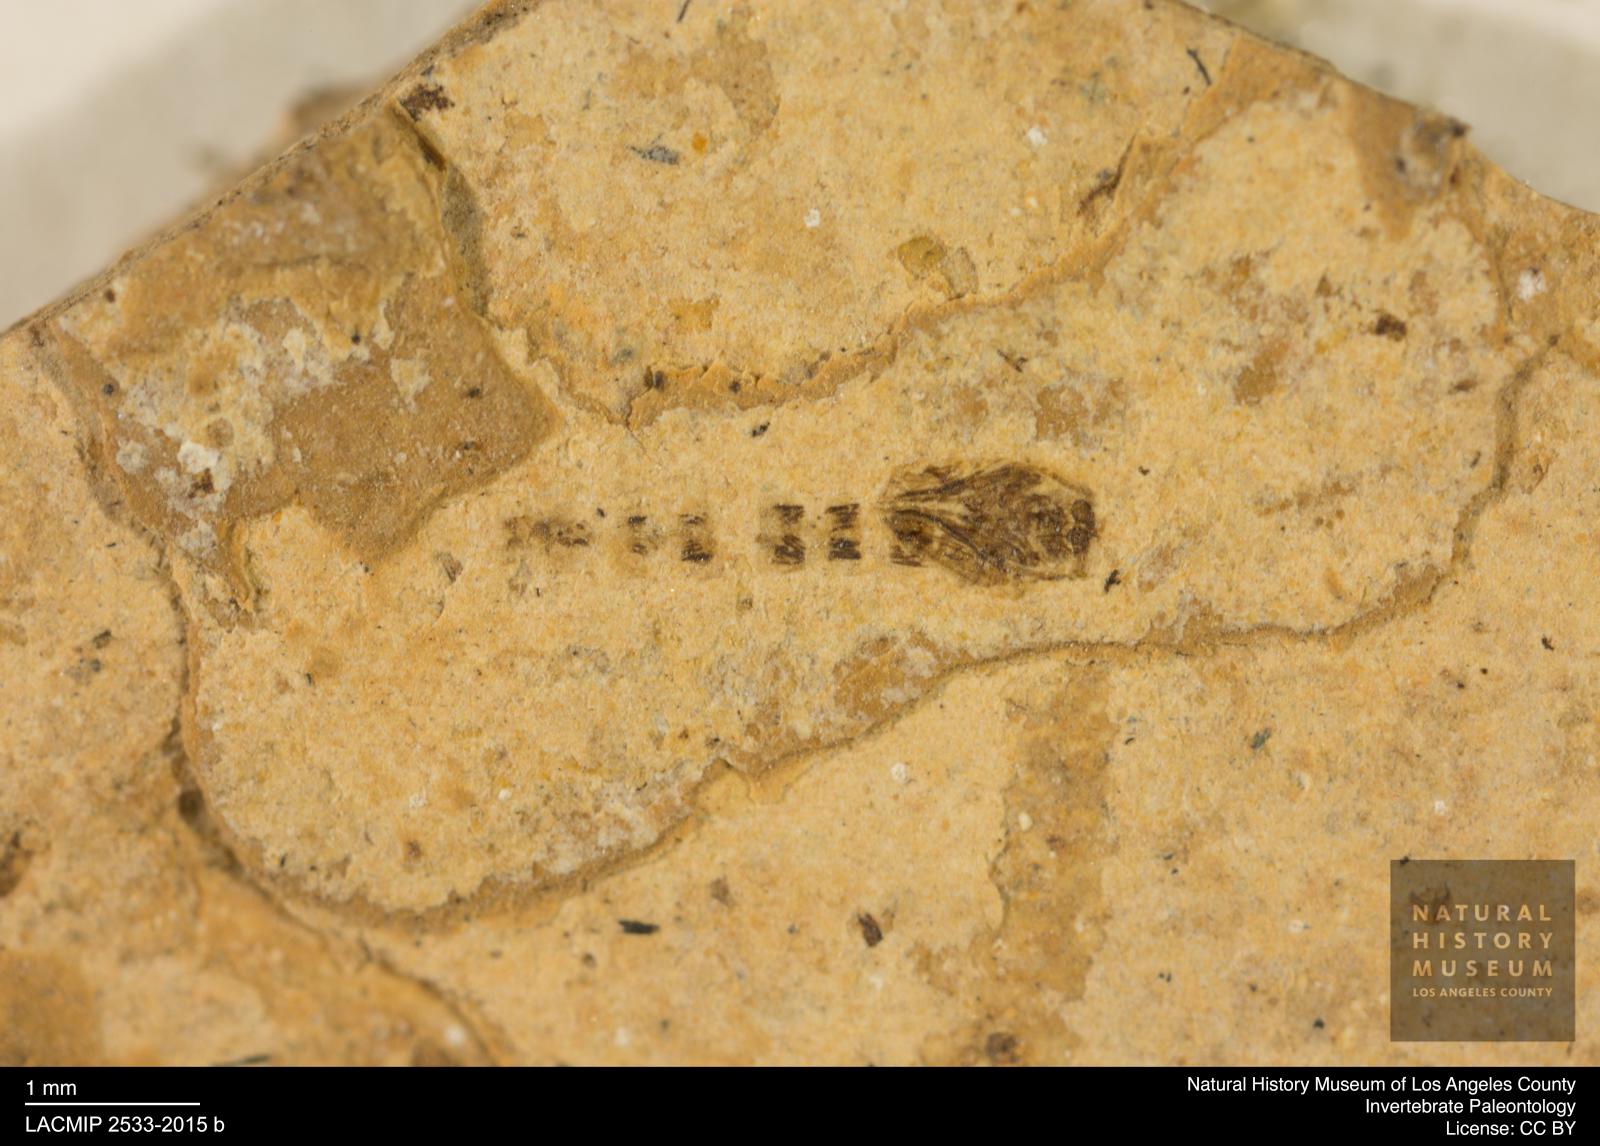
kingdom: Animalia
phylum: Arthropoda
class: Insecta
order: Diptera
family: Ceratopogonidae
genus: Ceratopogon
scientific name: Ceratopogon
